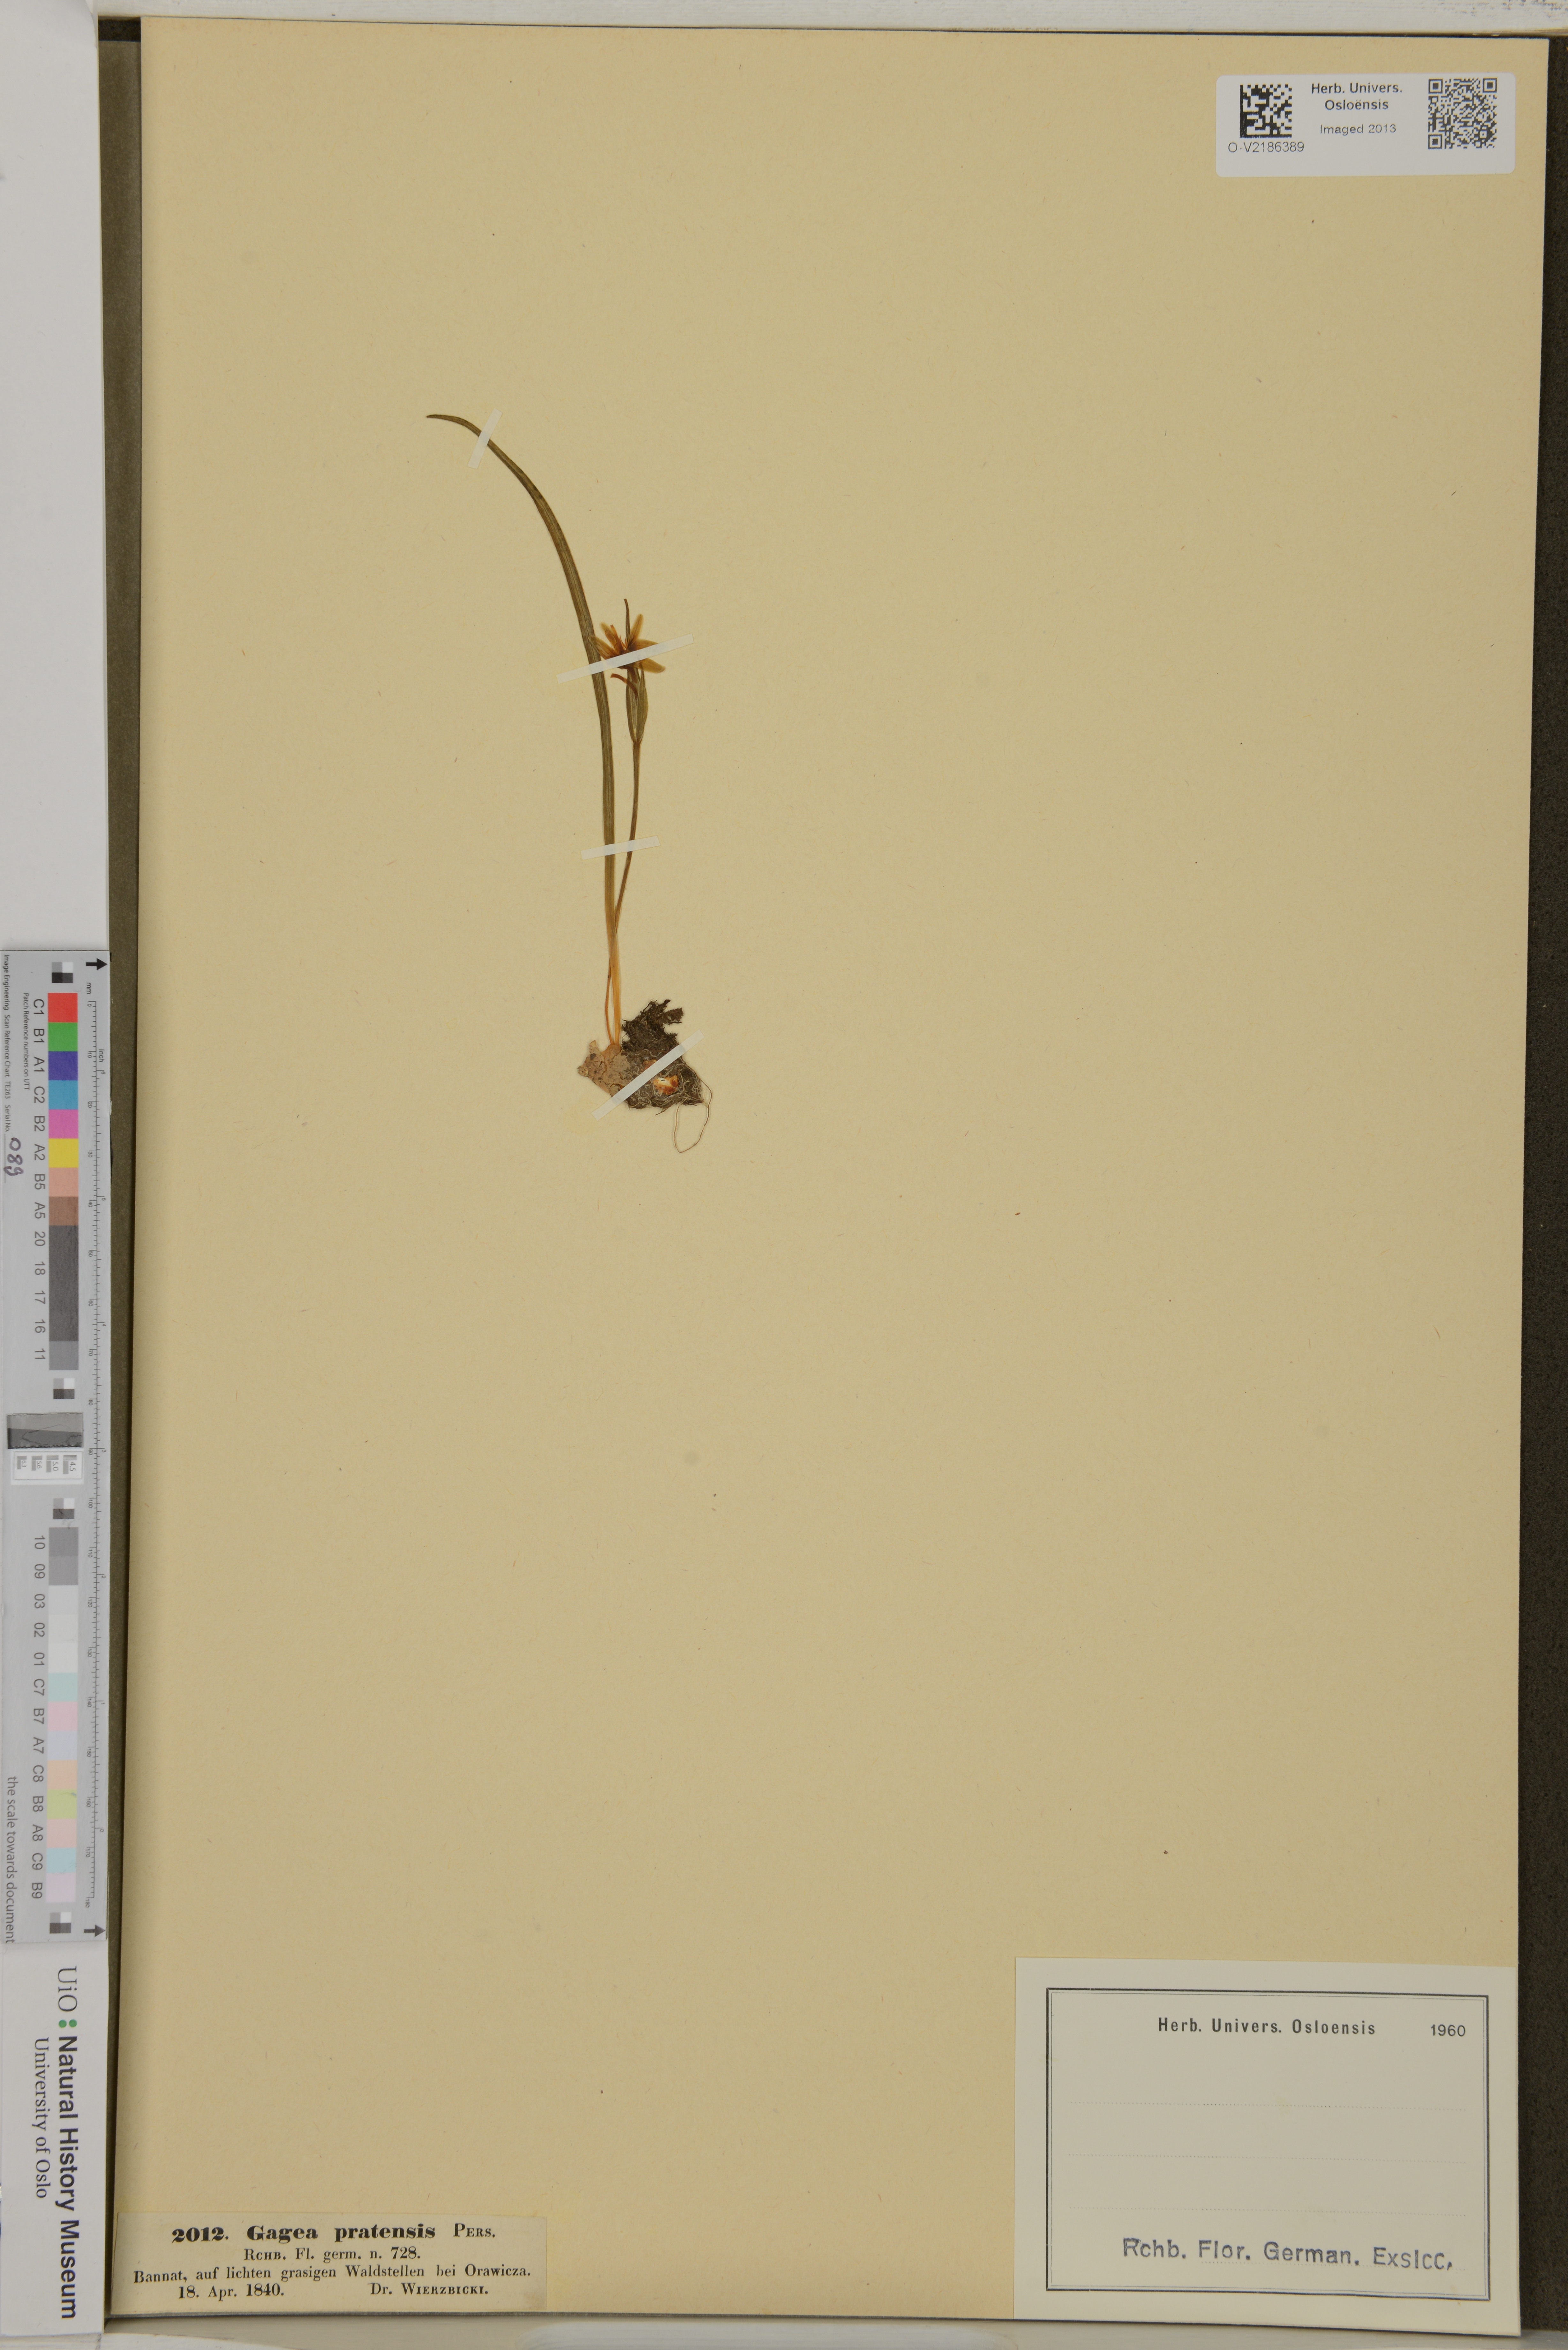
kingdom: Plantae
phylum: Tracheophyta
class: Liliopsida
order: Liliales
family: Liliaceae
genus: Gagea
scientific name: Gagea pratensis
